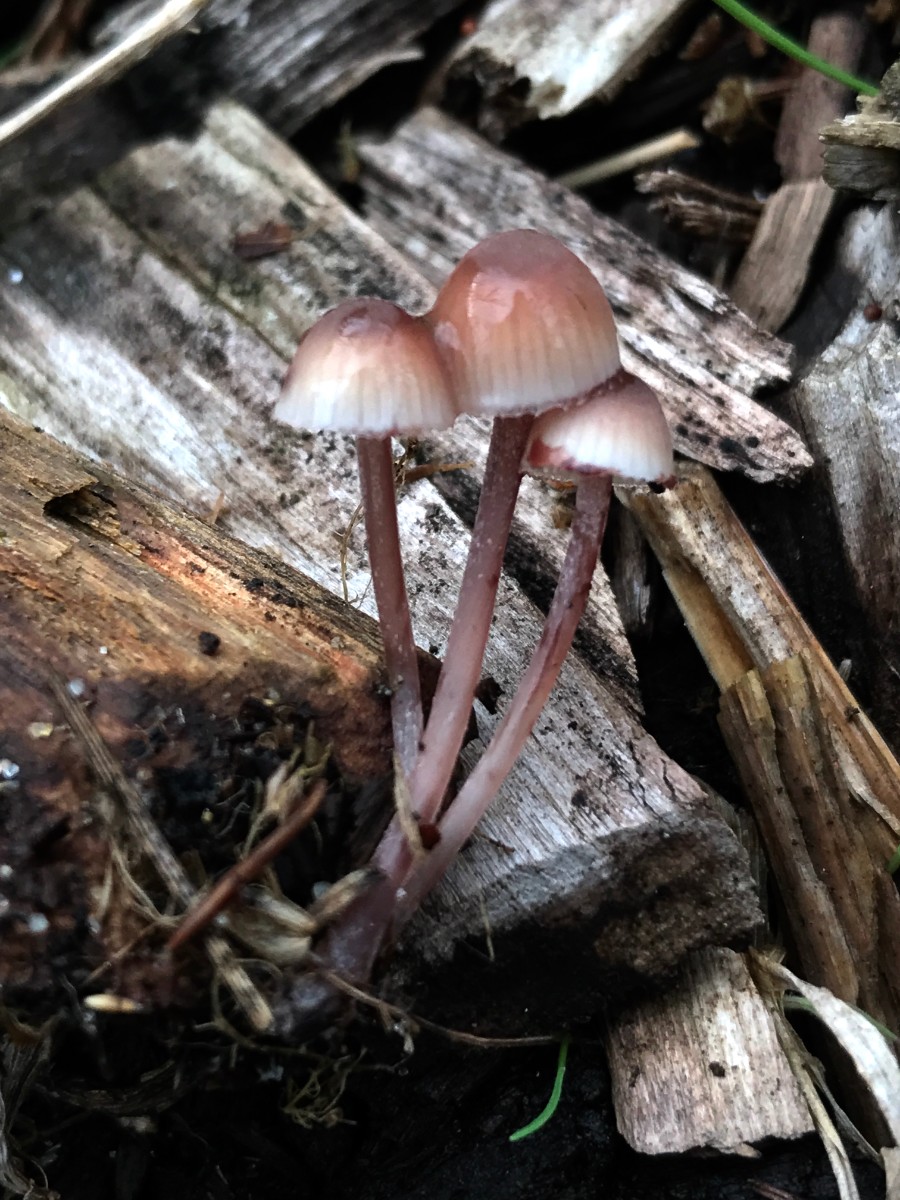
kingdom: Fungi
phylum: Basidiomycota
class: Agaricomycetes
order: Agaricales
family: Mycenaceae
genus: Mycena
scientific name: Mycena haematopus
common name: blødende huesvamp
